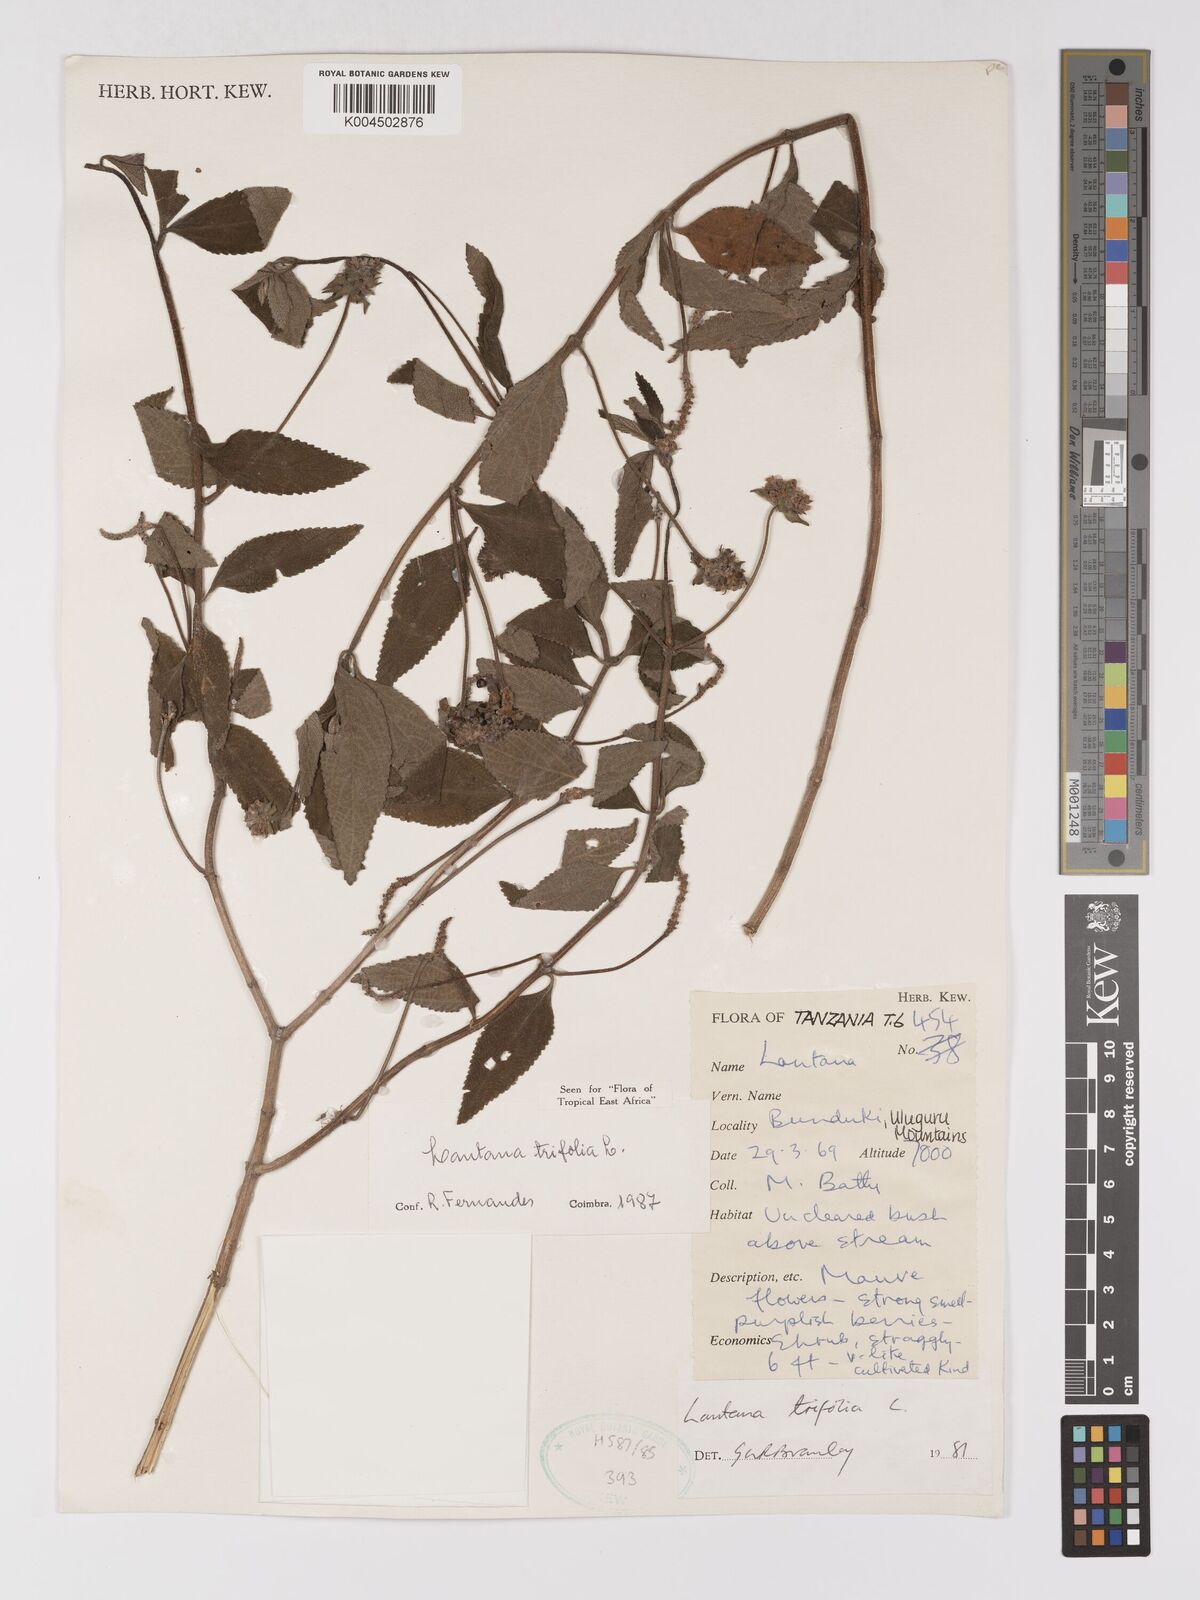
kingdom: Plantae
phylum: Tracheophyta
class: Magnoliopsida
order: Lamiales
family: Verbenaceae
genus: Lantana
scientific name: Lantana trifolia
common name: Sweet-sage
